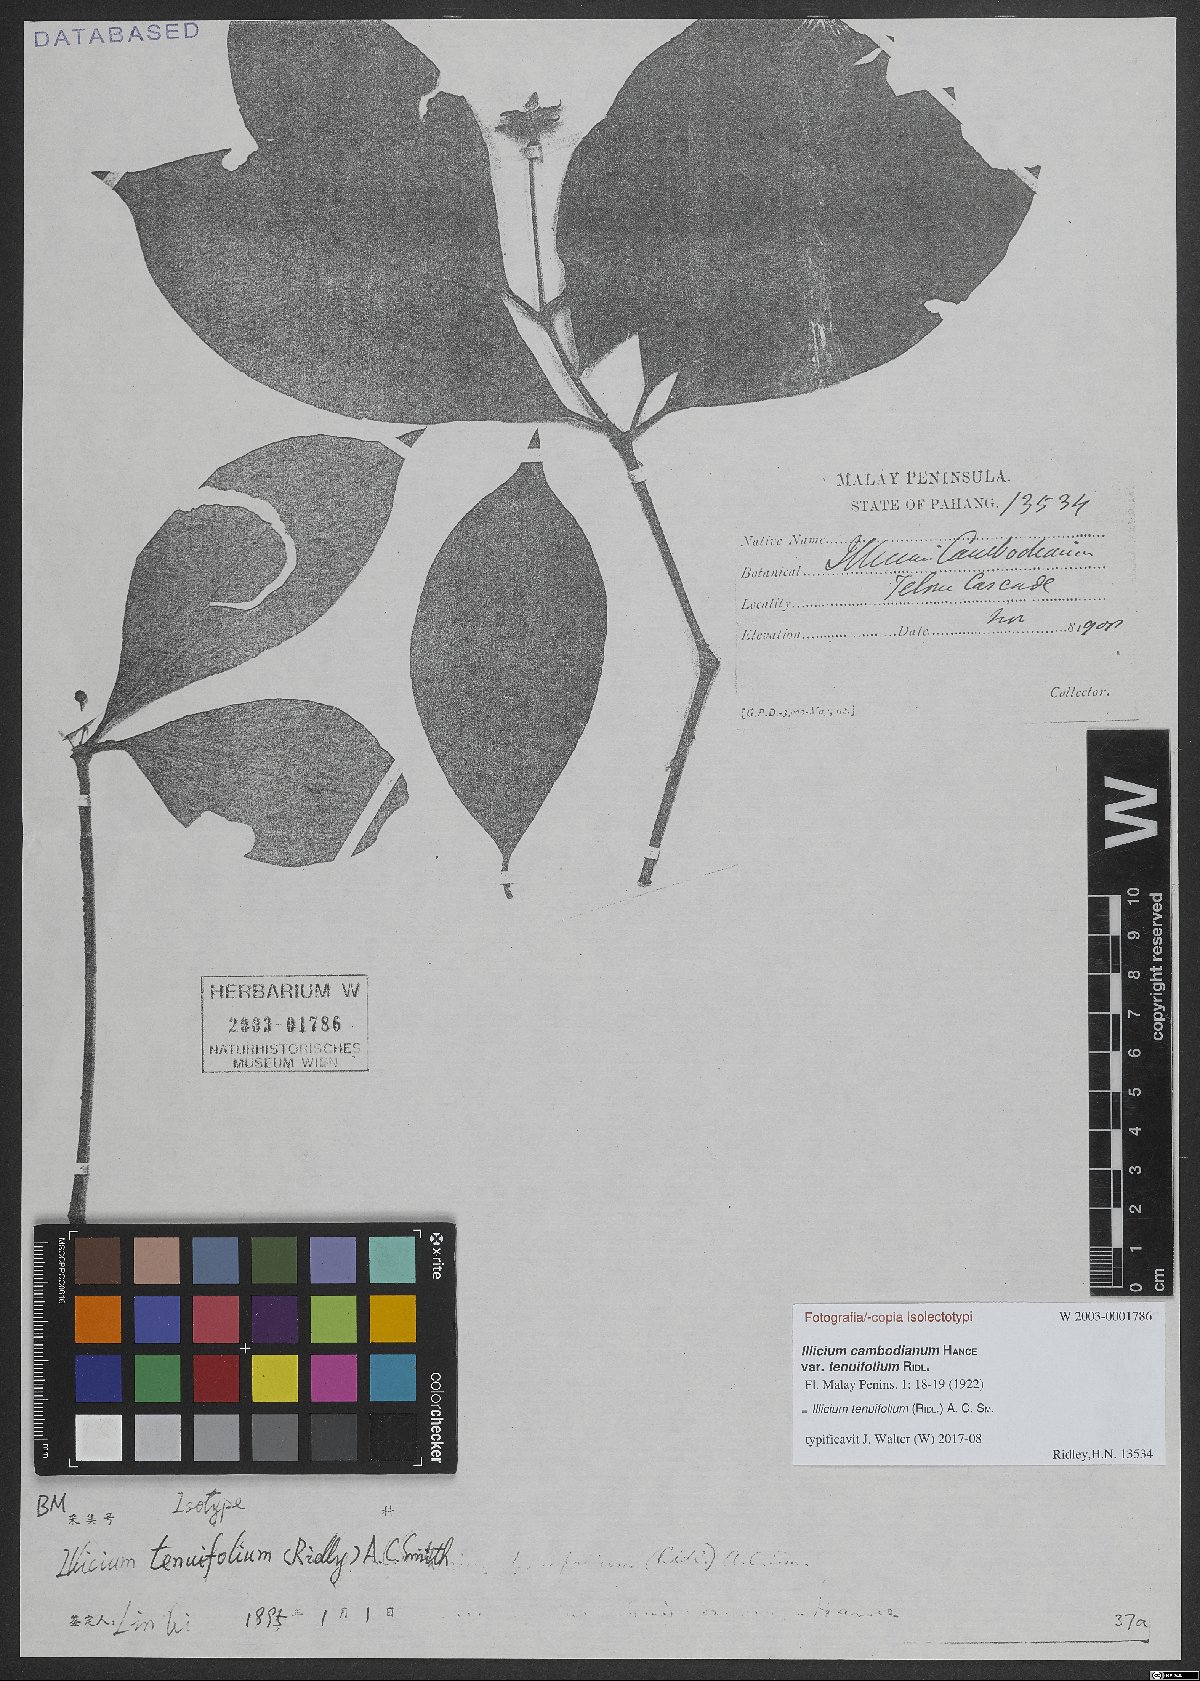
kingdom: Plantae
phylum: Tracheophyta
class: Magnoliopsida
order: Austrobaileyales
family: Schisandraceae
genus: Illicium
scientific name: Illicium tenuifolium
